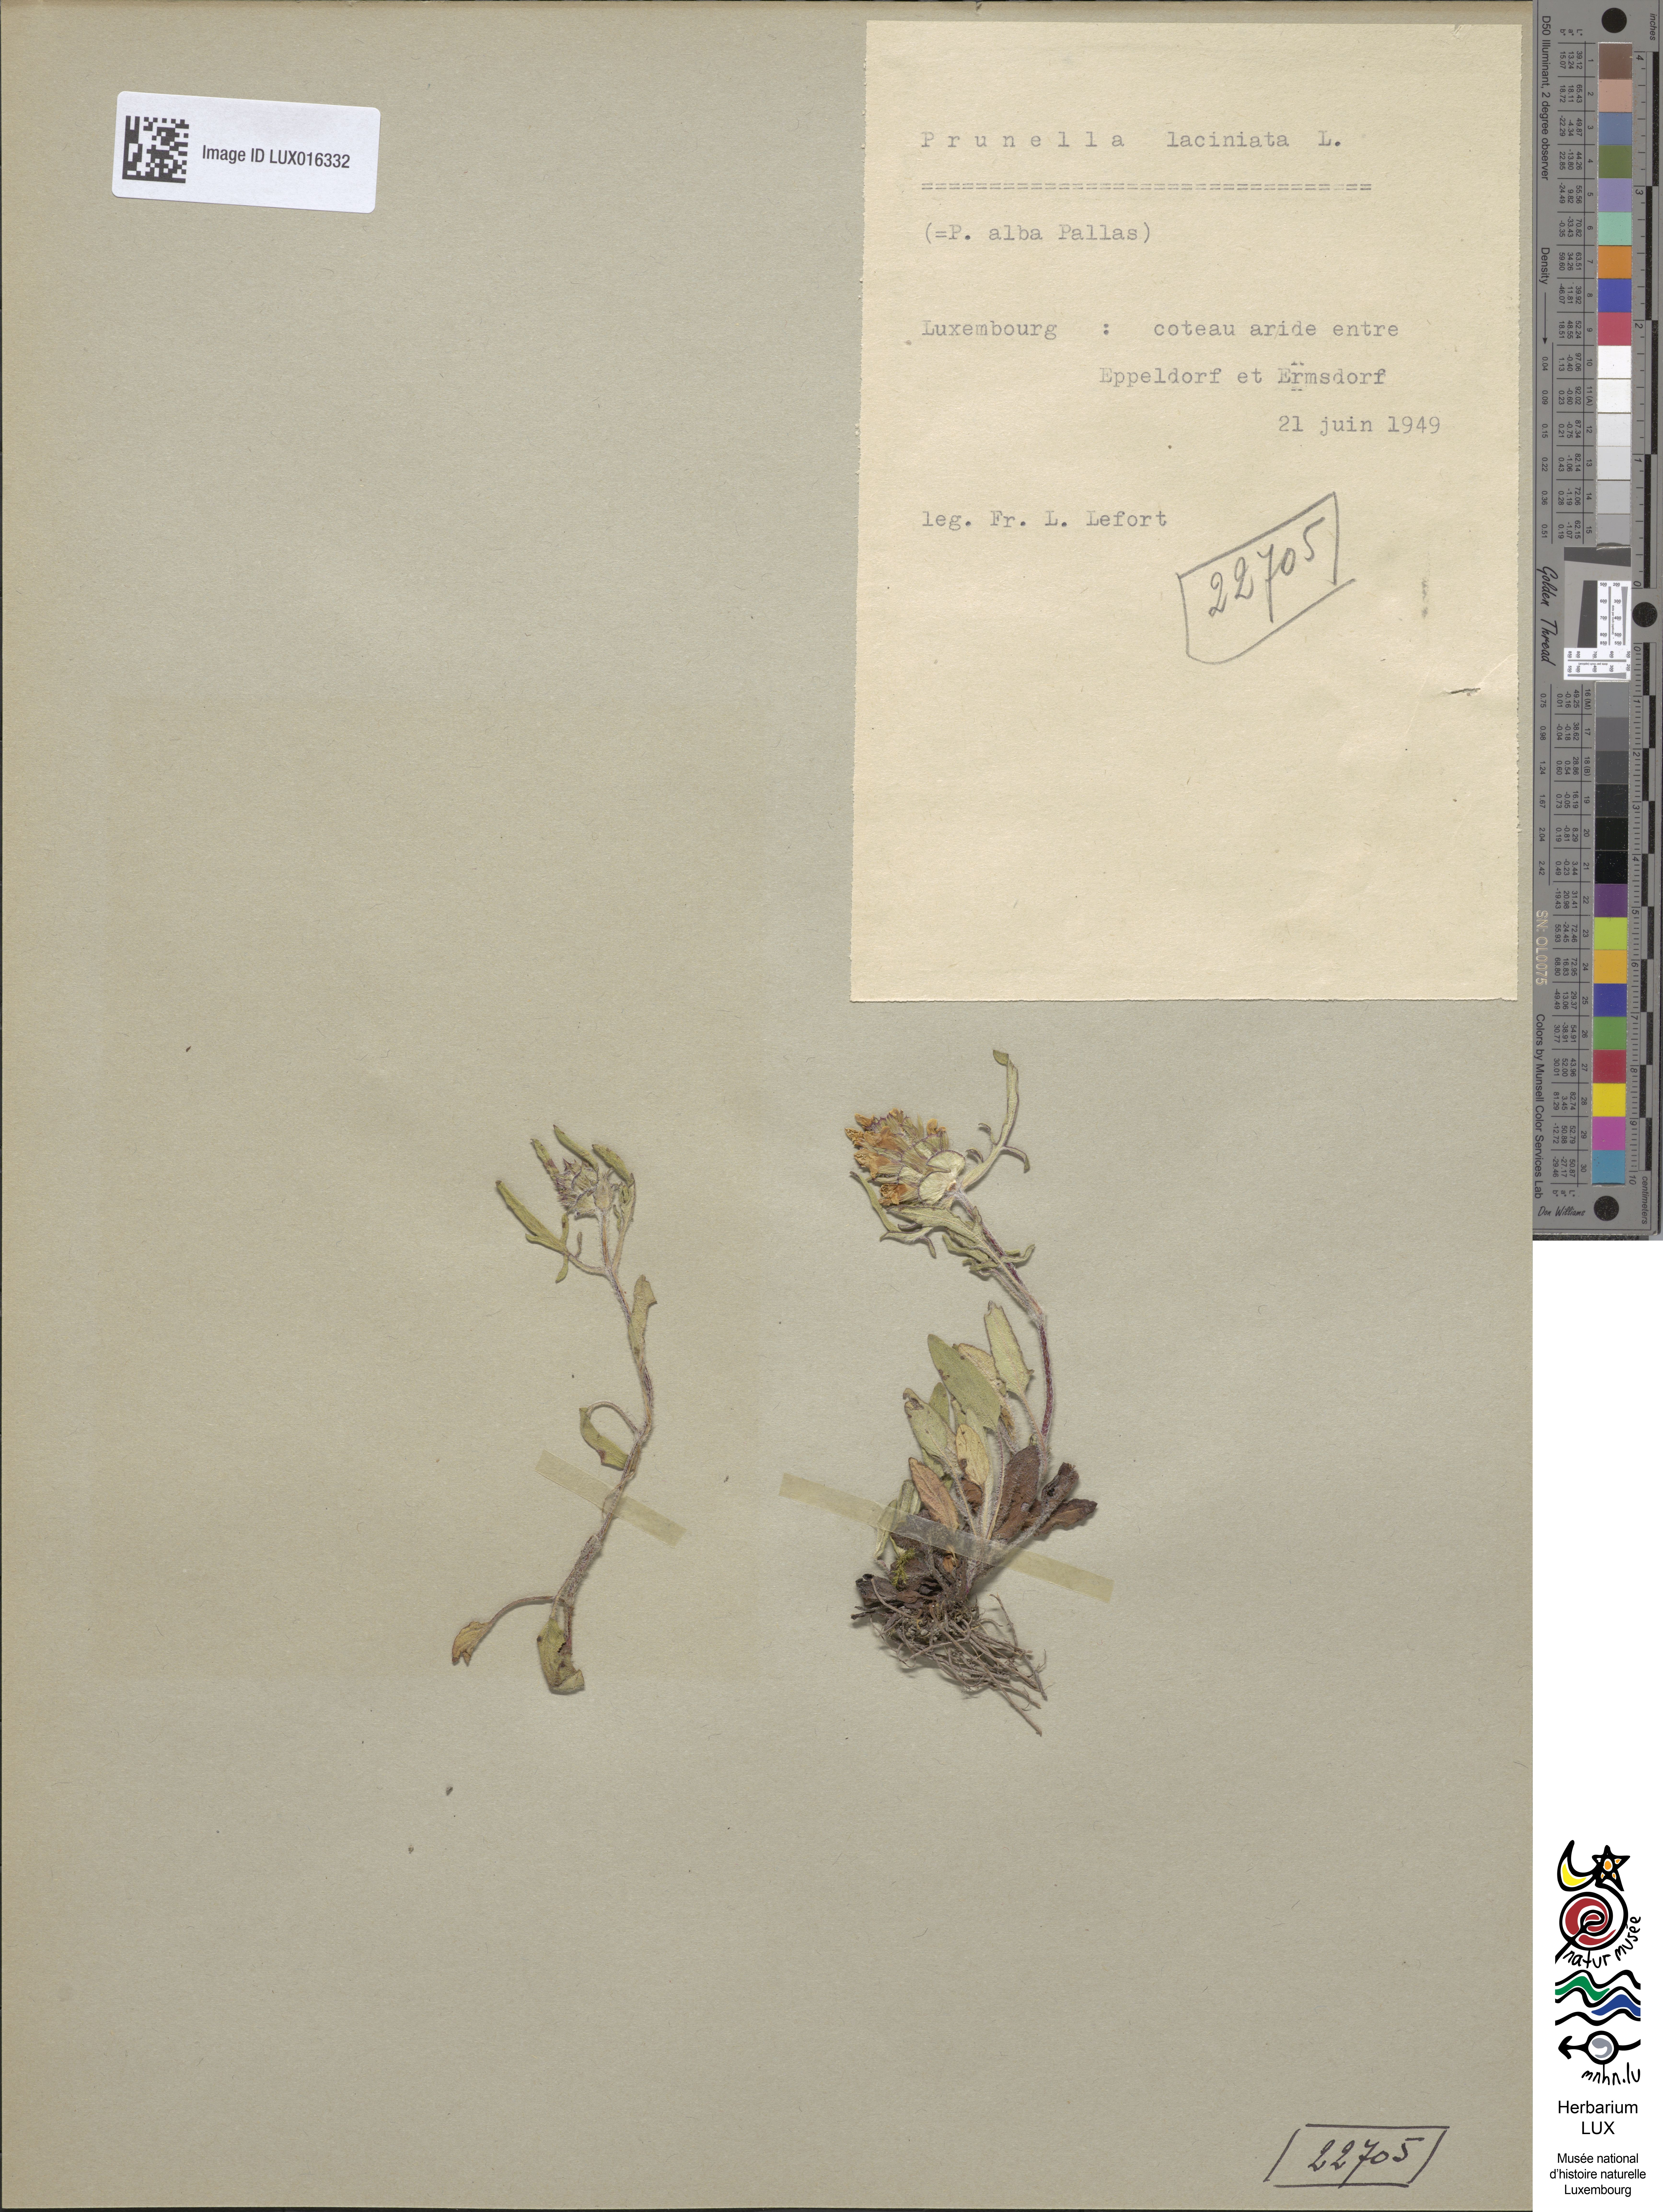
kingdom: Plantae
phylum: Tracheophyta
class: Magnoliopsida
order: Lamiales
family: Lamiaceae
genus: Prunella
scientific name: Prunella laciniata
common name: Cut-leaved selfheal
